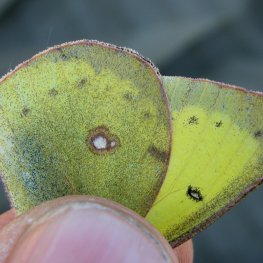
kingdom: Animalia
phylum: Arthropoda
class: Insecta
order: Lepidoptera
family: Pieridae
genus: Colias
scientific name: Colias philodice
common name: Clouded Sulphur
